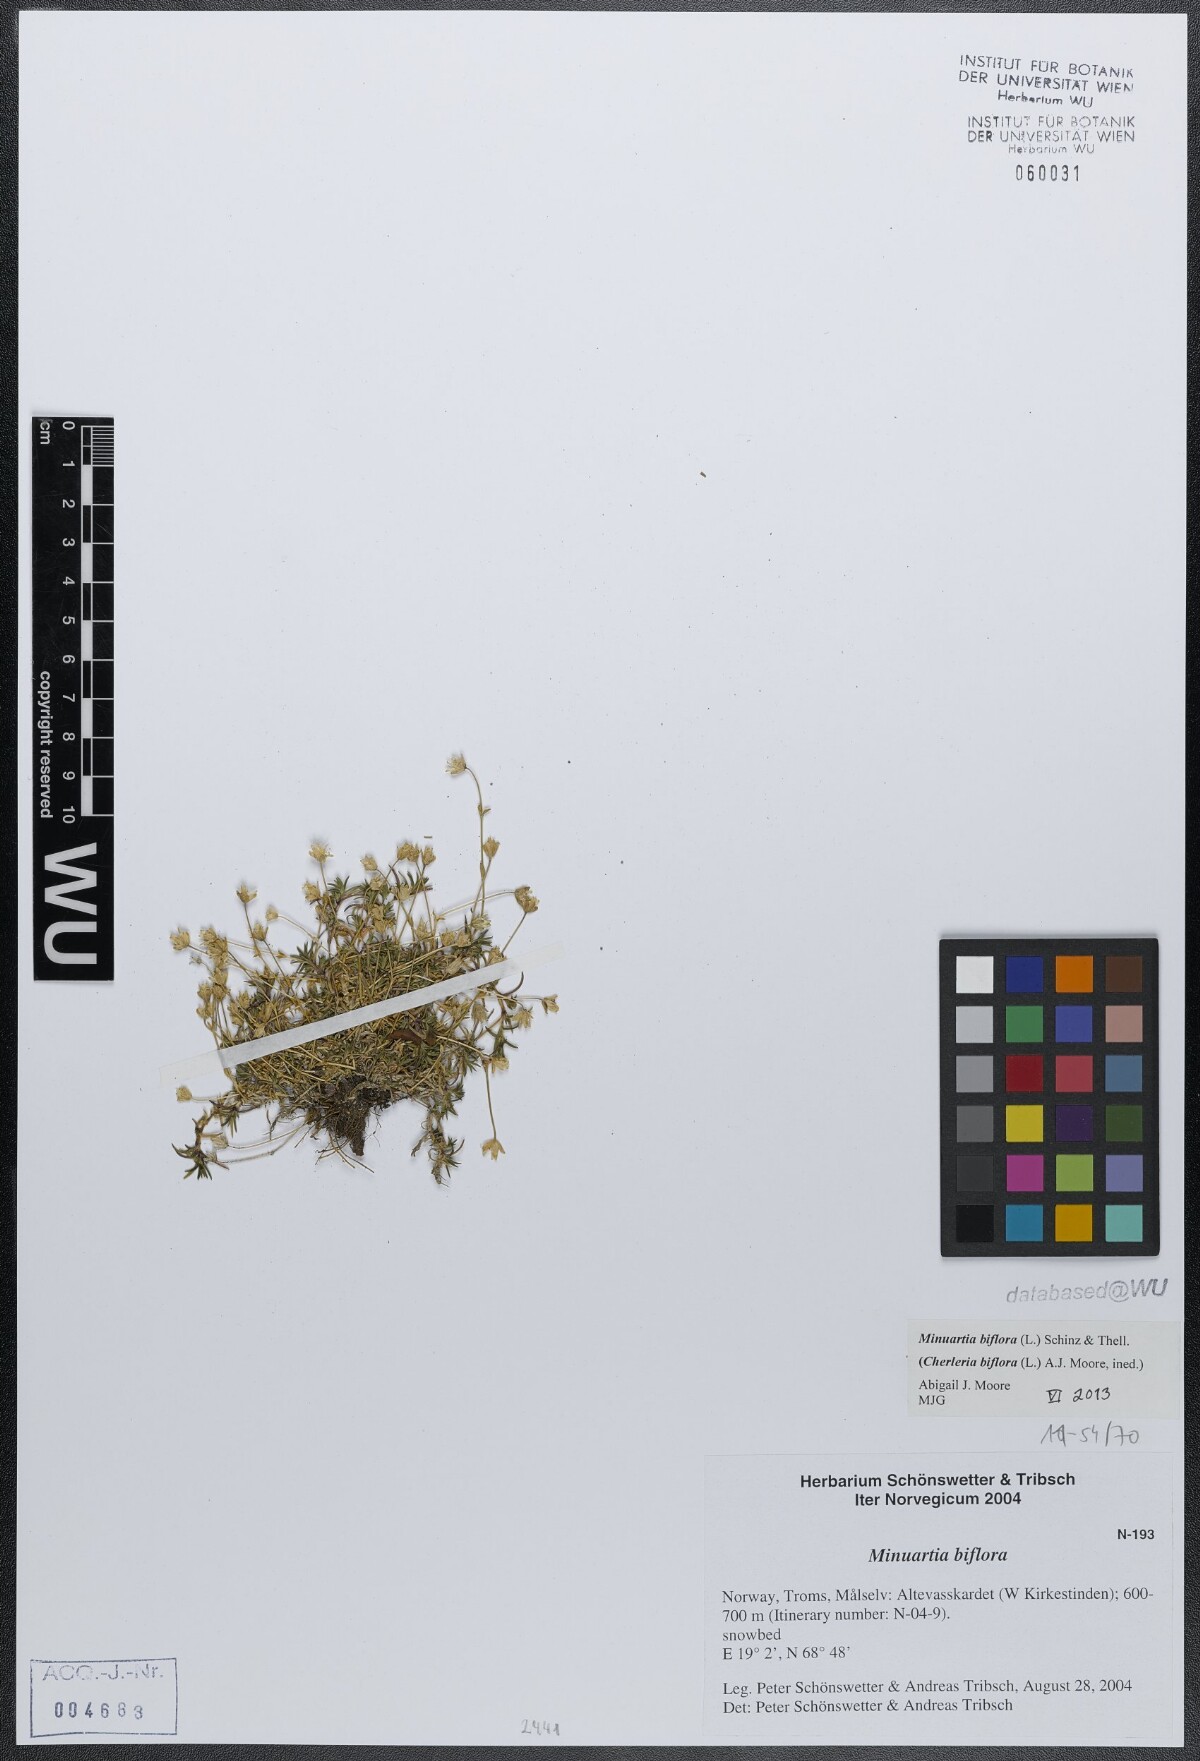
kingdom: Plantae
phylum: Tracheophyta
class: Magnoliopsida
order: Caryophyllales
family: Caryophyllaceae
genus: Cherleria
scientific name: Cherleria biflora
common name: Mountain sandwort
